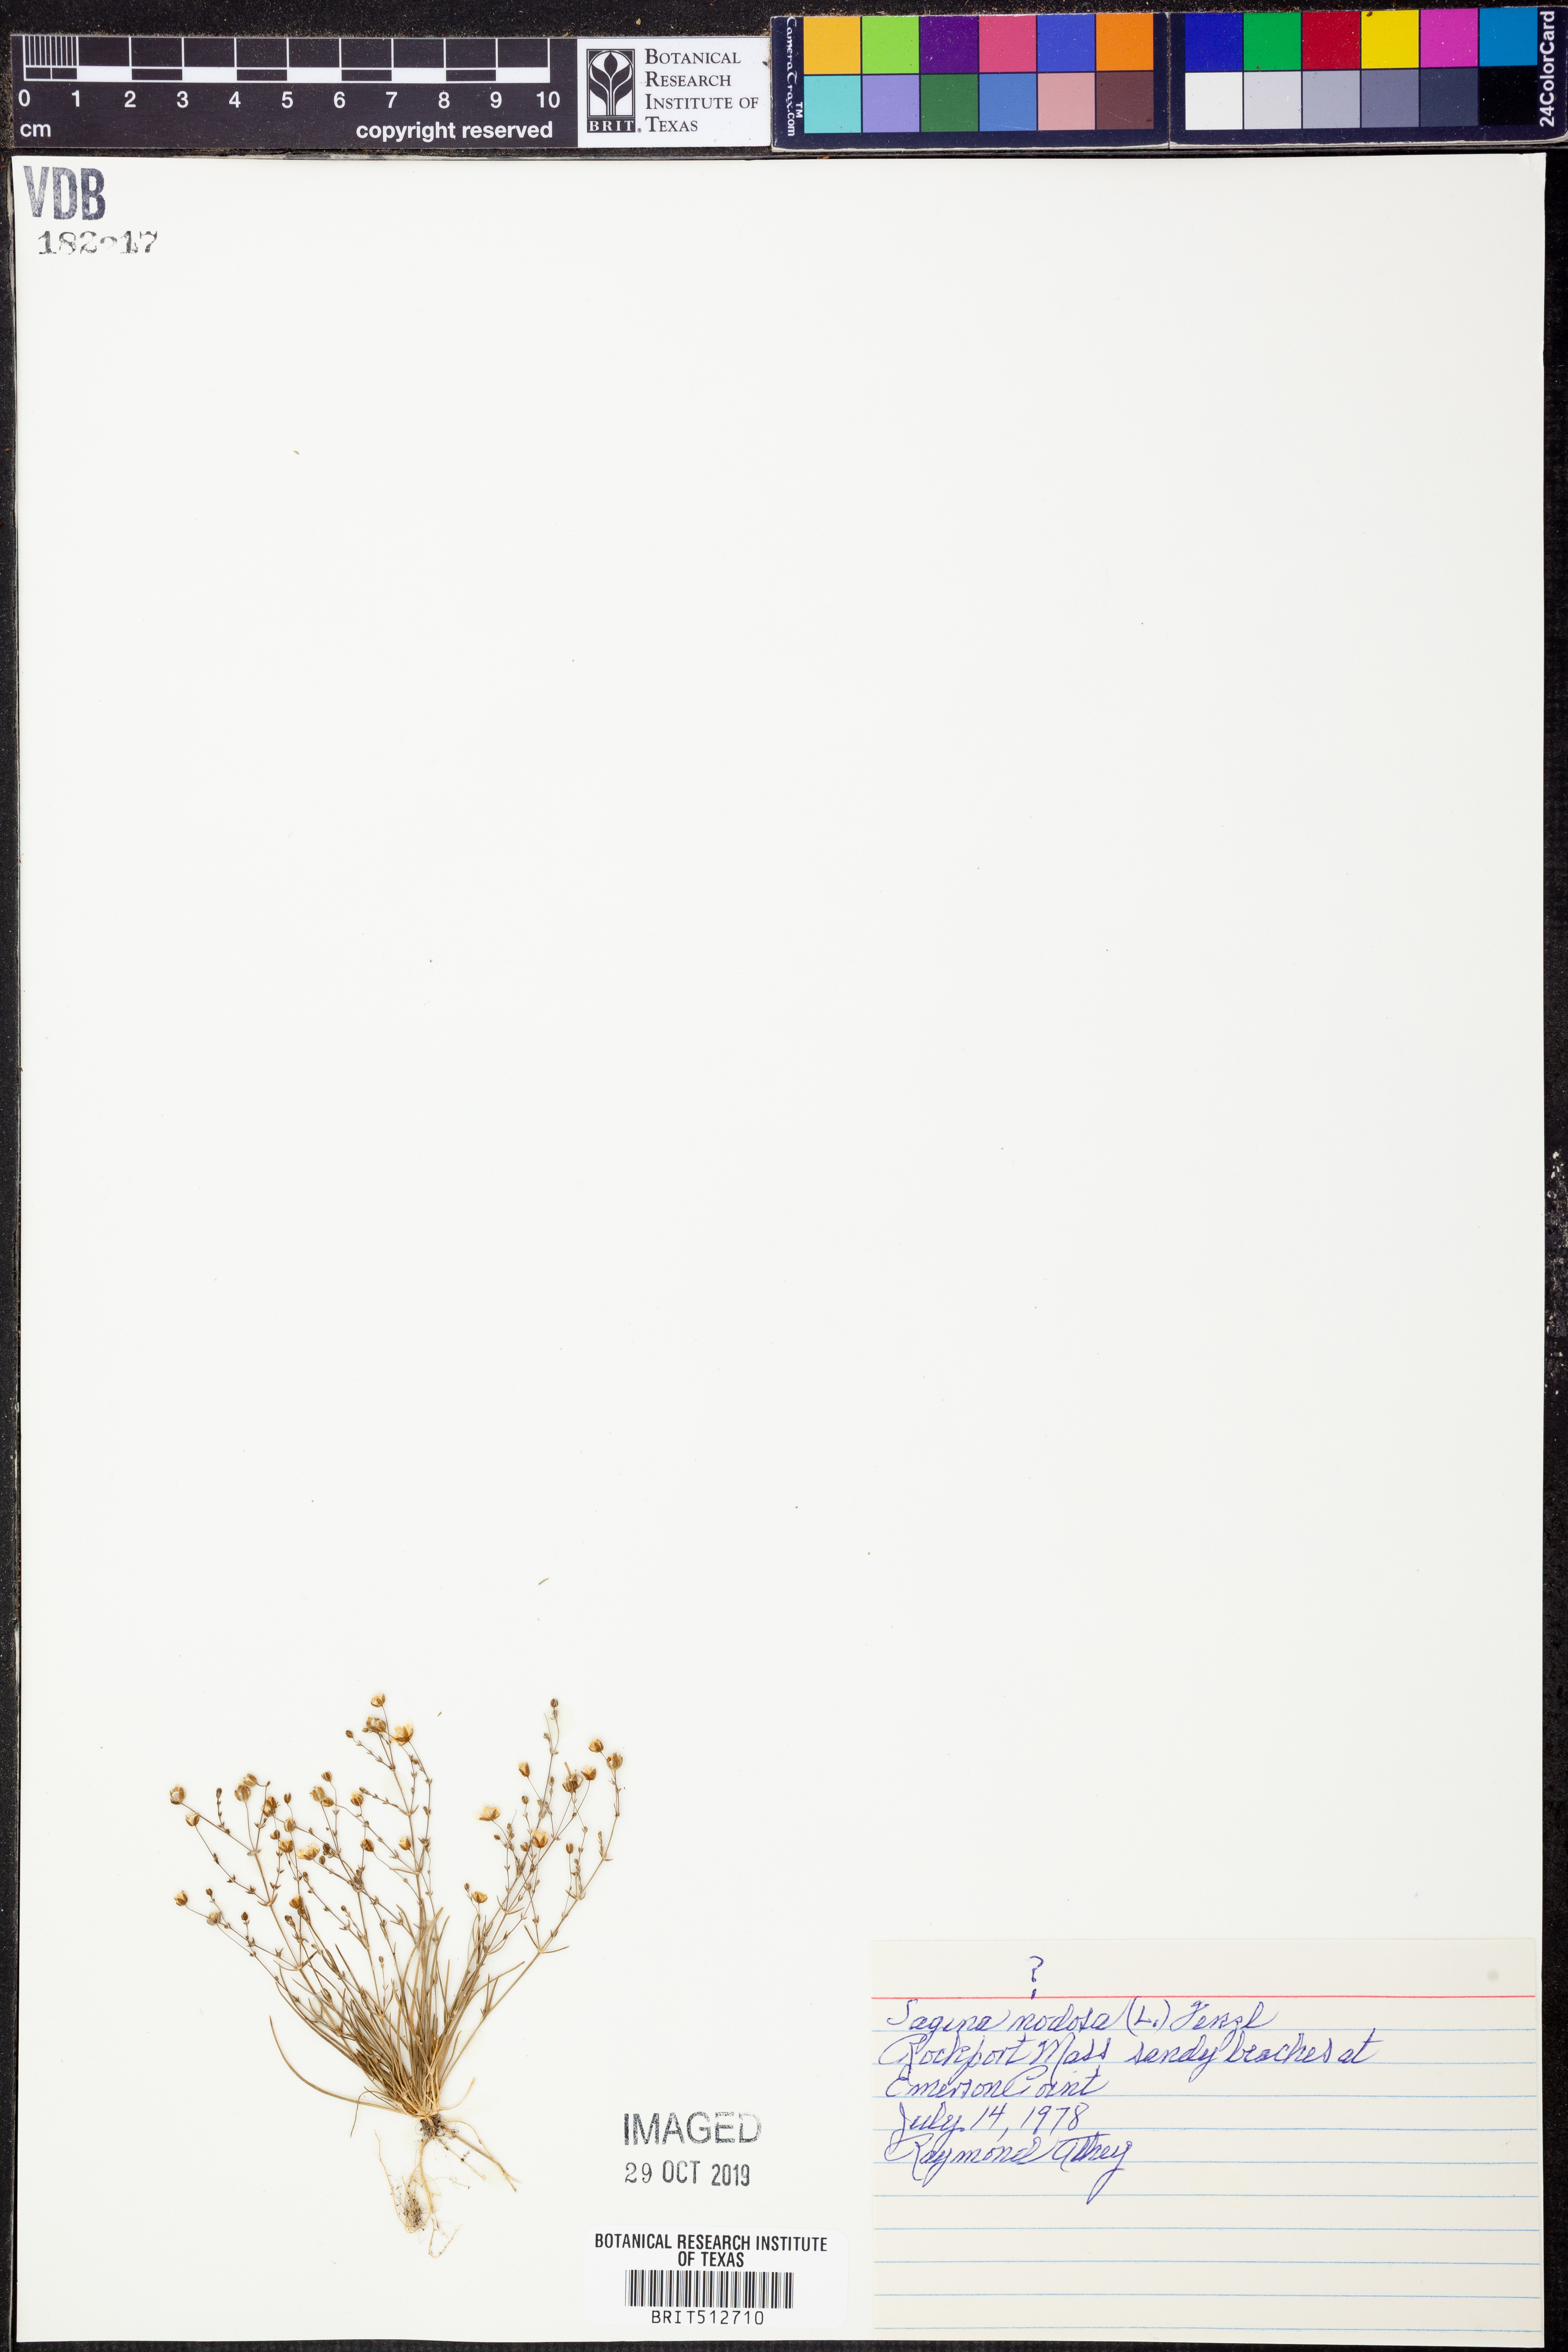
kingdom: Plantae
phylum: Tracheophyta
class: Magnoliopsida
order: Caryophyllales
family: Caryophyllaceae
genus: Sagina
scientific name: Sagina nodosa
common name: Knotted pearlwort
